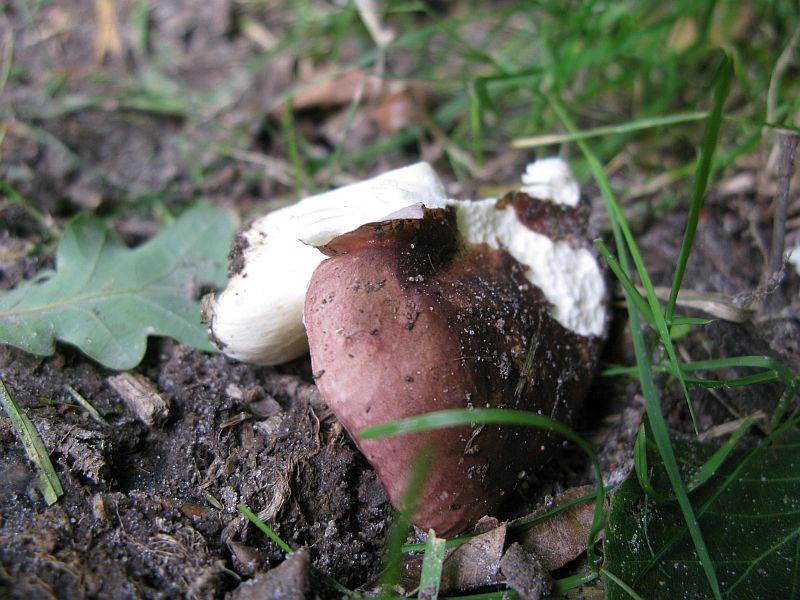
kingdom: Fungi
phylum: Basidiomycota
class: Agaricomycetes
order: Russulales
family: Russulaceae
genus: Russula
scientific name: Russula
